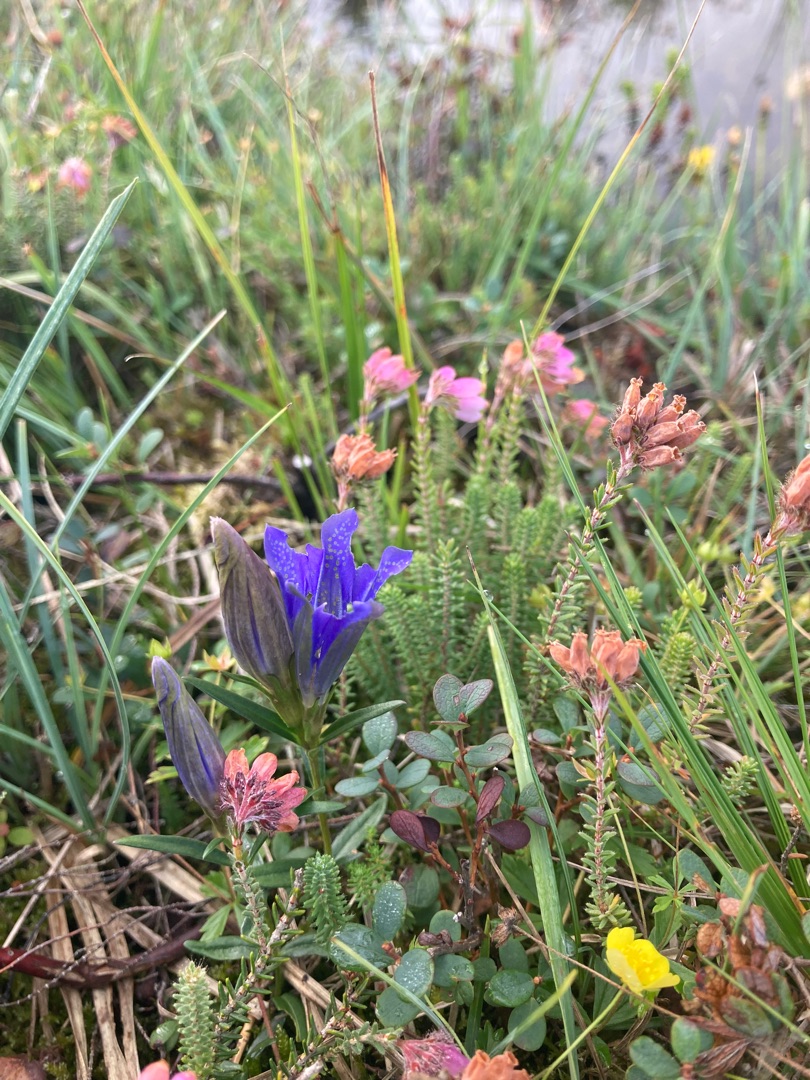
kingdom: Plantae
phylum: Tracheophyta
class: Magnoliopsida
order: Gentianales
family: Gentianaceae
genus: Gentiana
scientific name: Gentiana pneumonanthe
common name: Klokke-ensian
